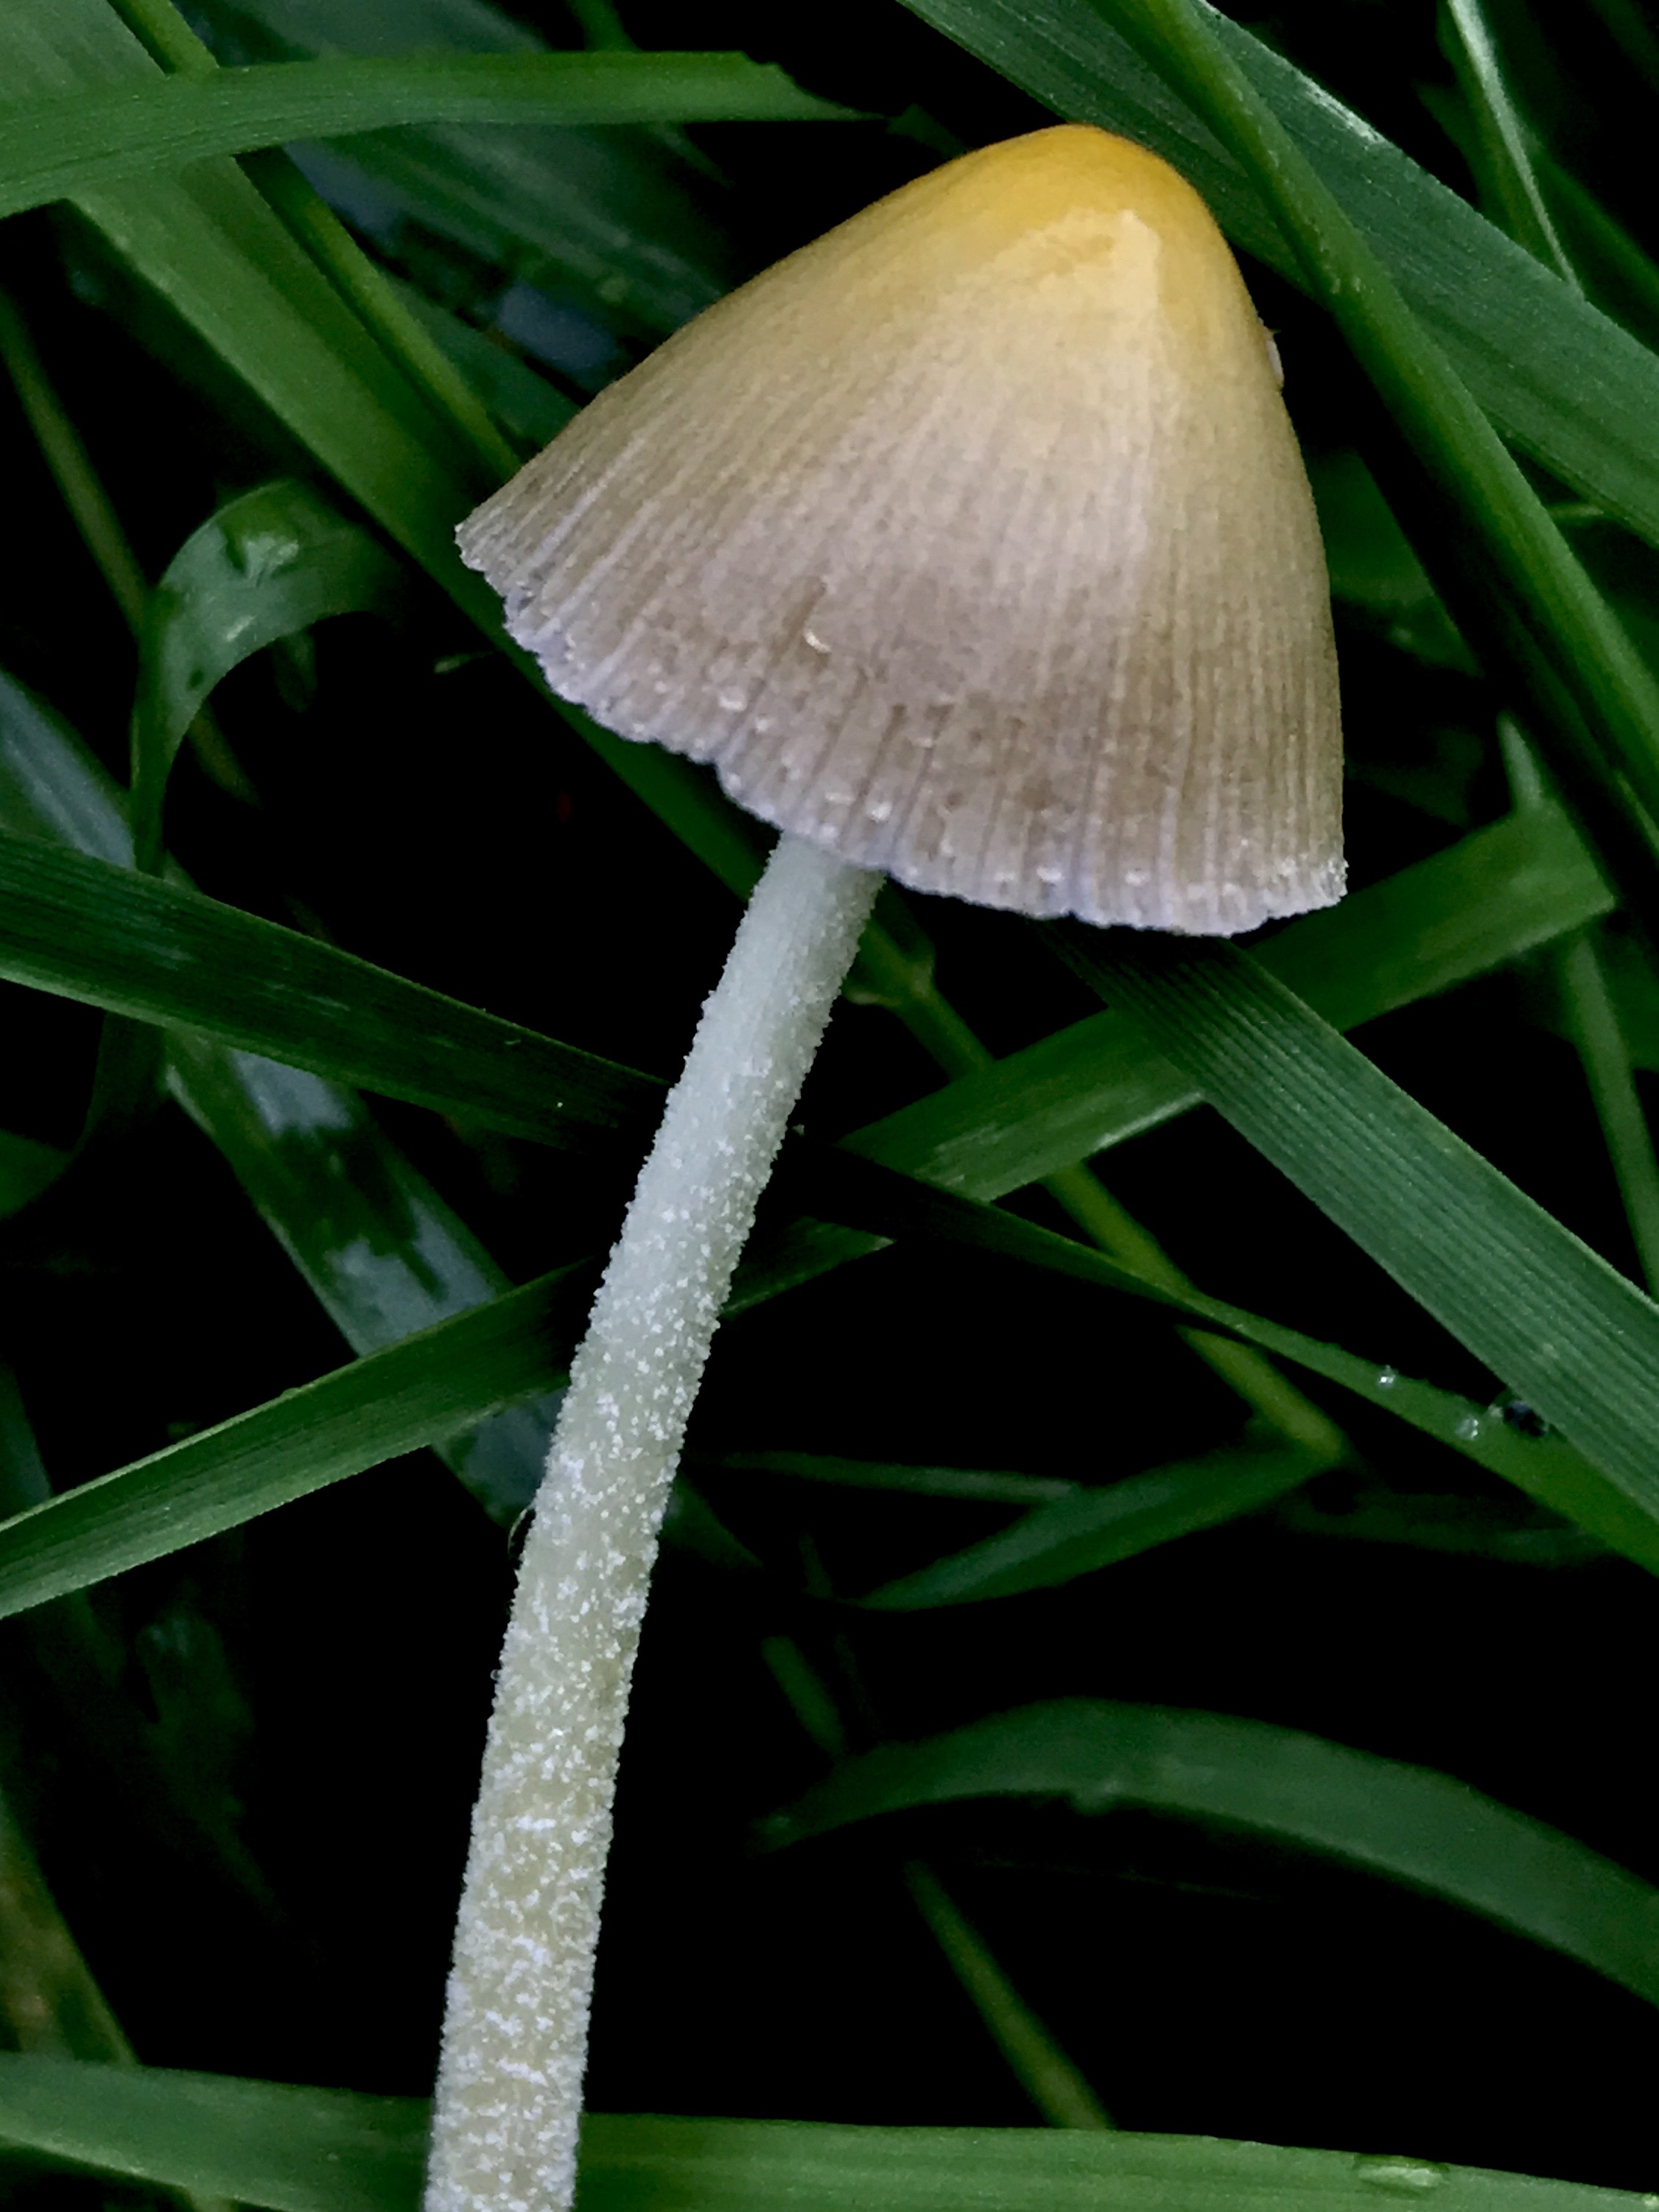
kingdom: Fungi
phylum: Basidiomycota
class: Agaricomycetes
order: Agaricales
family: Bolbitiaceae
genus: Bolbitius
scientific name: Bolbitius titubans
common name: almindelig gulhat
